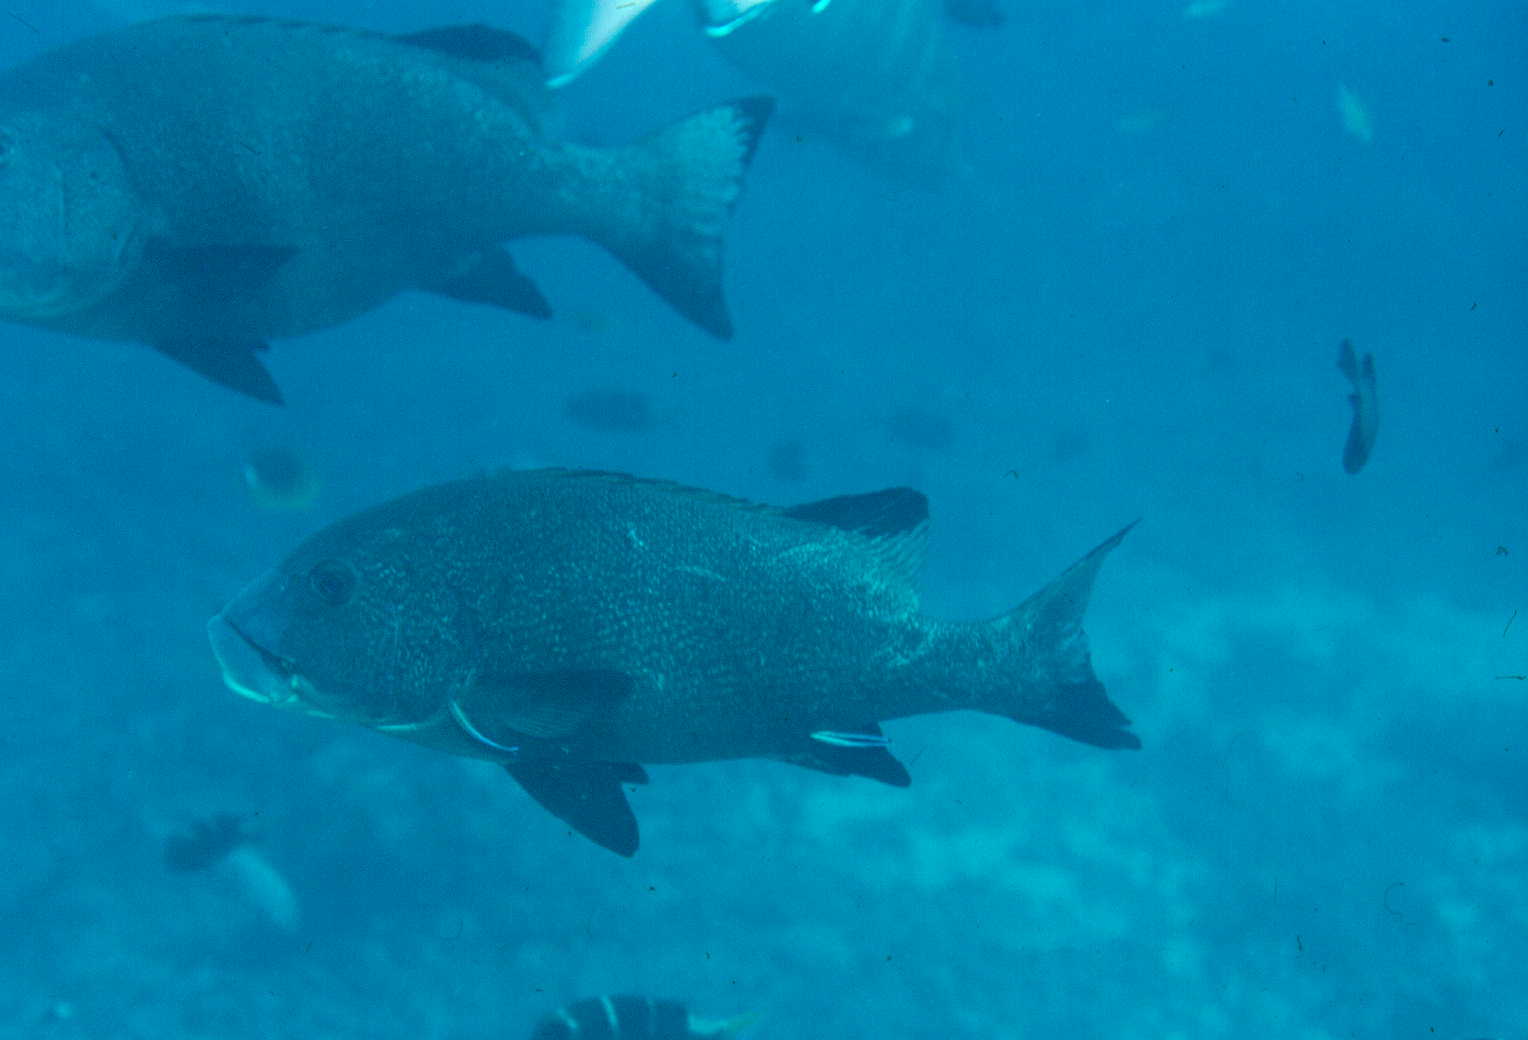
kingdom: Animalia
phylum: Chordata
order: Perciformes
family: Haemulidae
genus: Plectorhinchus
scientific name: Plectorhinchus albovittatus
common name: Giant sweetlips
